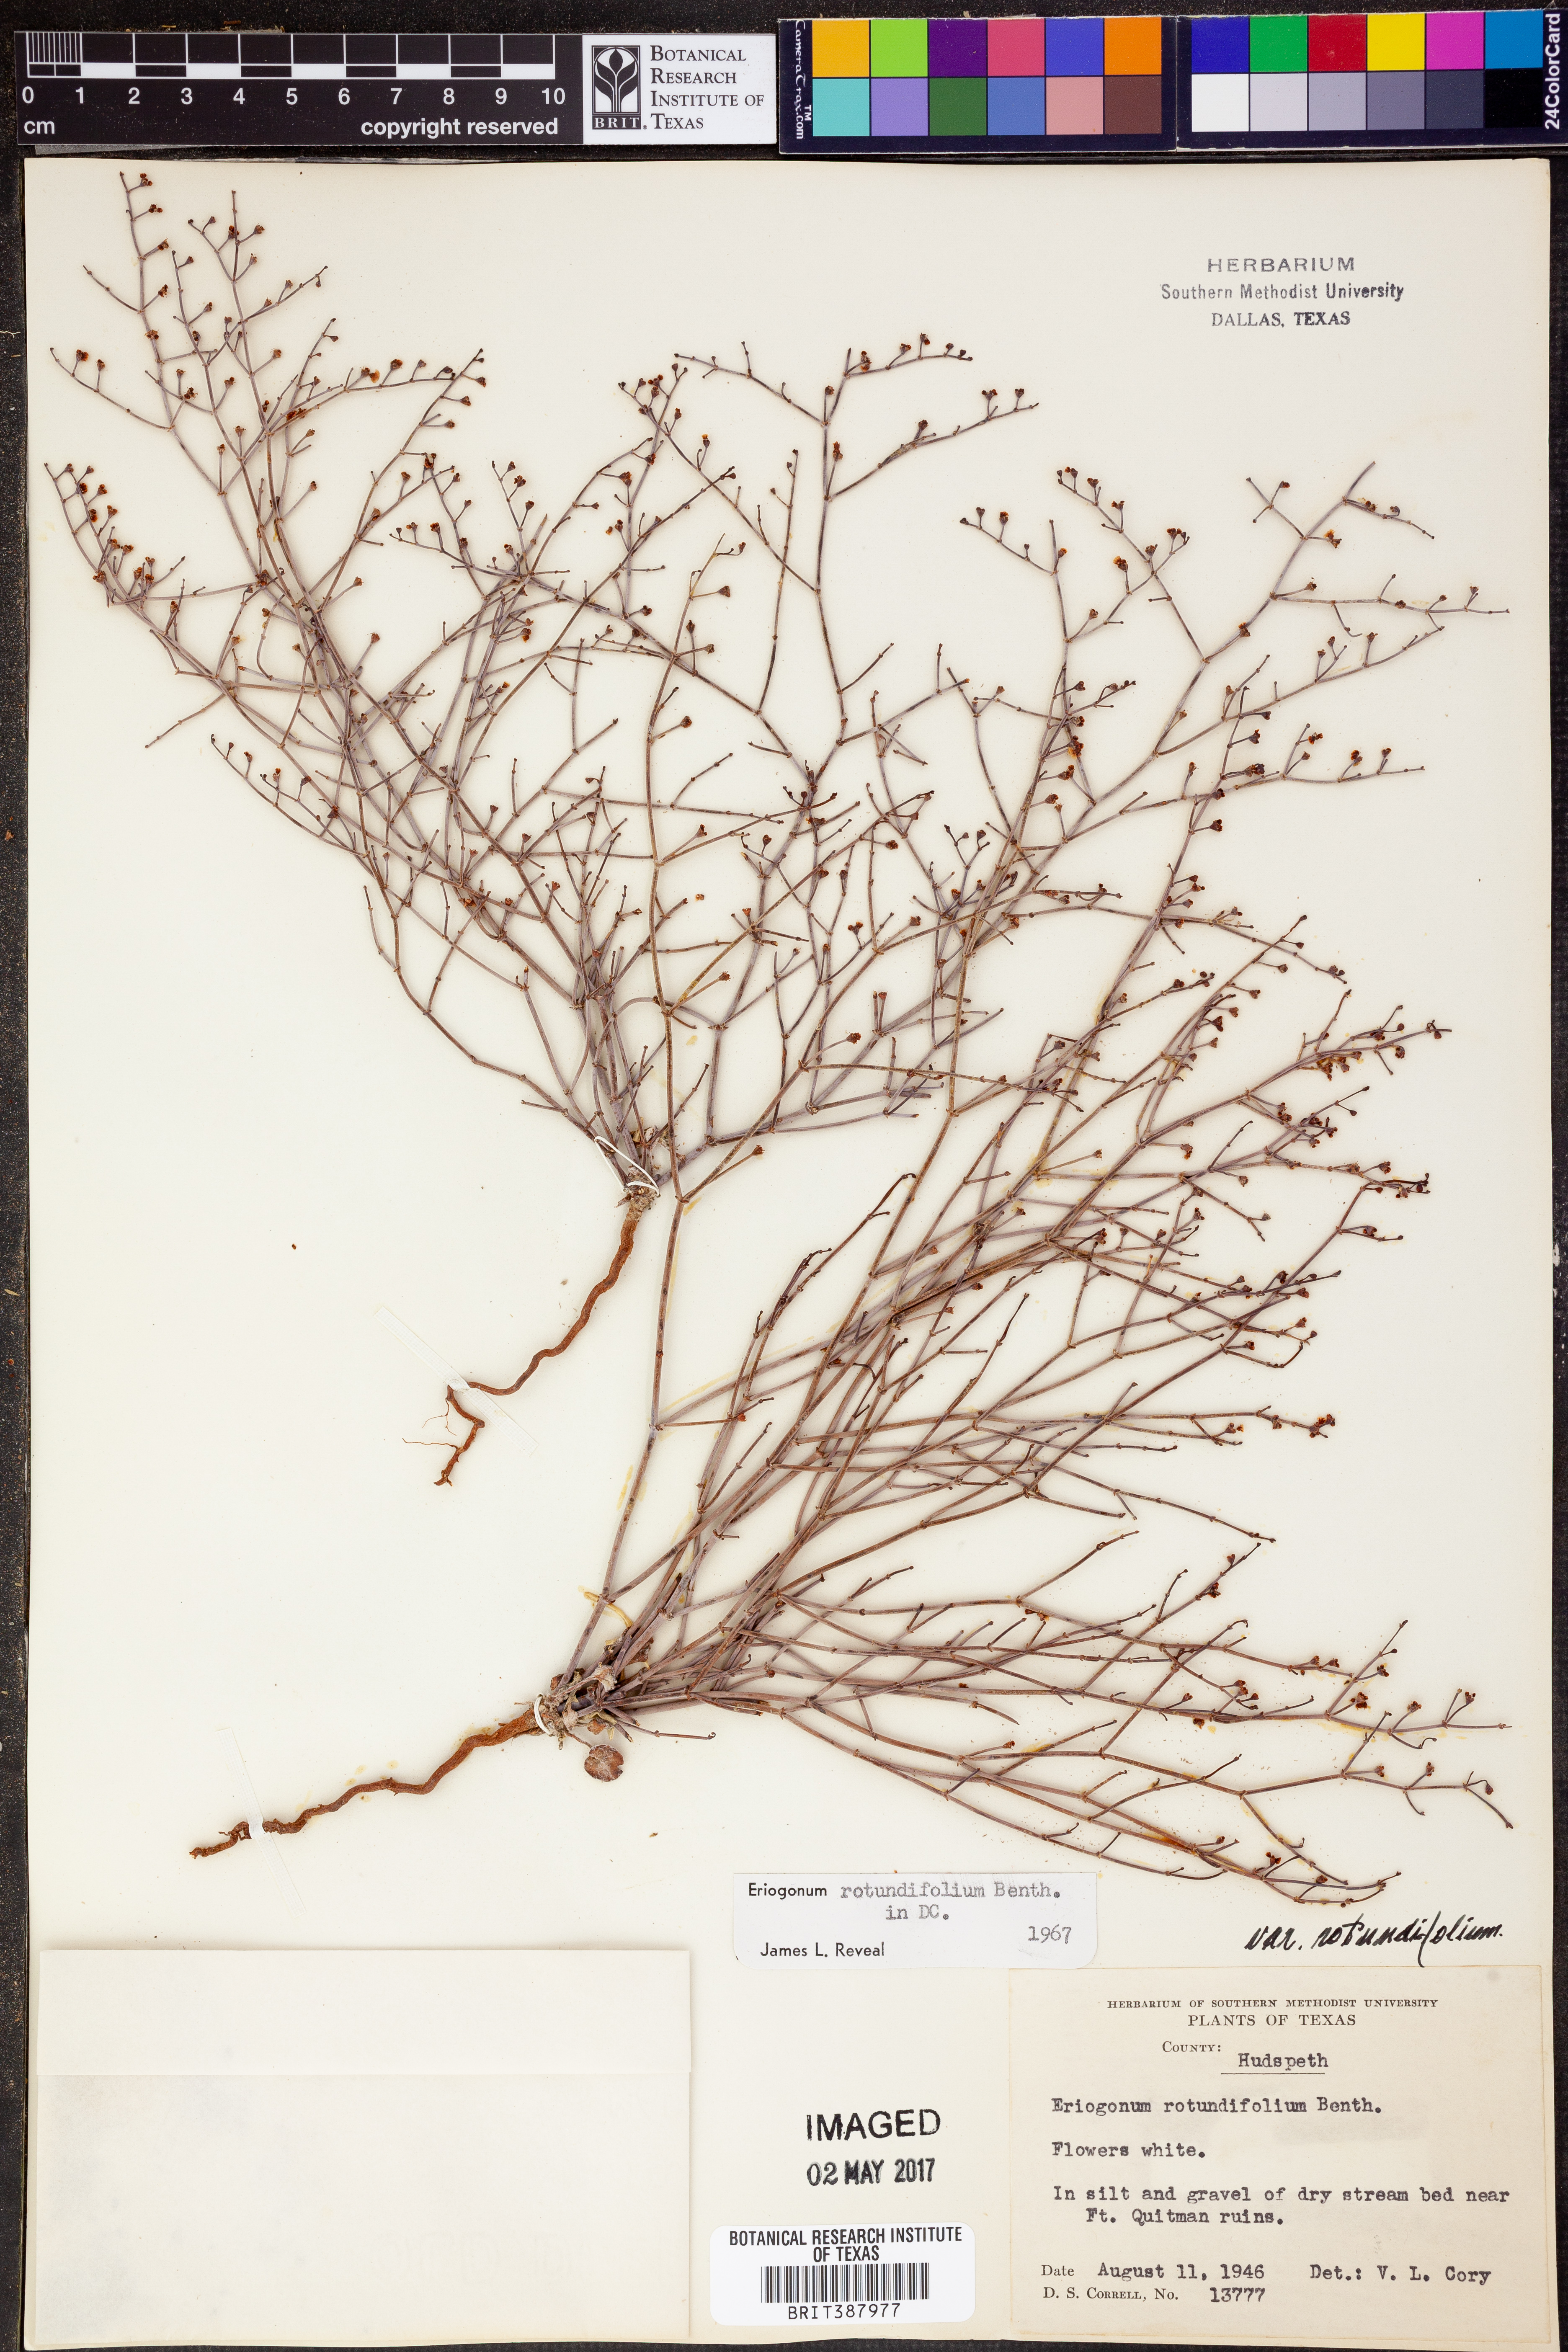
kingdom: Plantae
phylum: Tracheophyta
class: Magnoliopsida
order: Caryophyllales
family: Polygonaceae
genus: Eriogonum
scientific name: Eriogonum rotundifolium
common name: Round-leaf wild buckwheat
